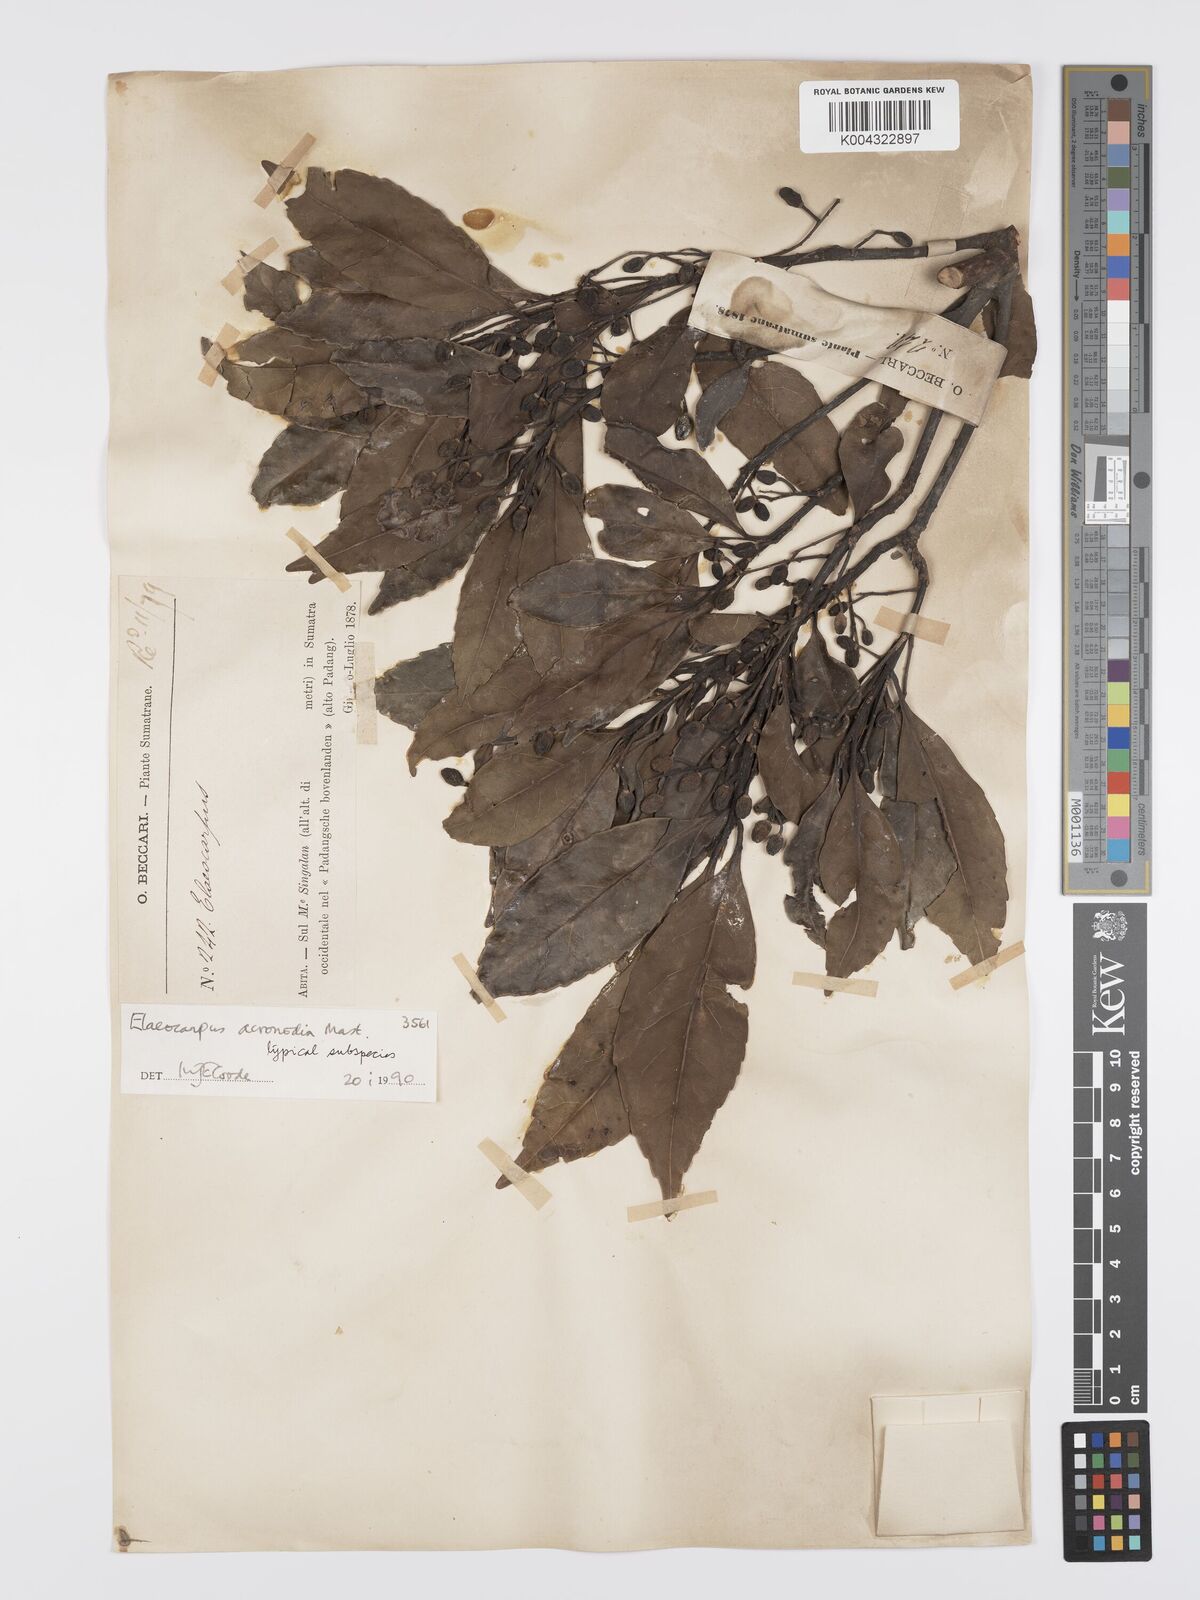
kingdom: Plantae
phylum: Tracheophyta
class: Magnoliopsida
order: Oxalidales
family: Elaeocarpaceae
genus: Elaeocarpus
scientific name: Elaeocarpus acronodia
